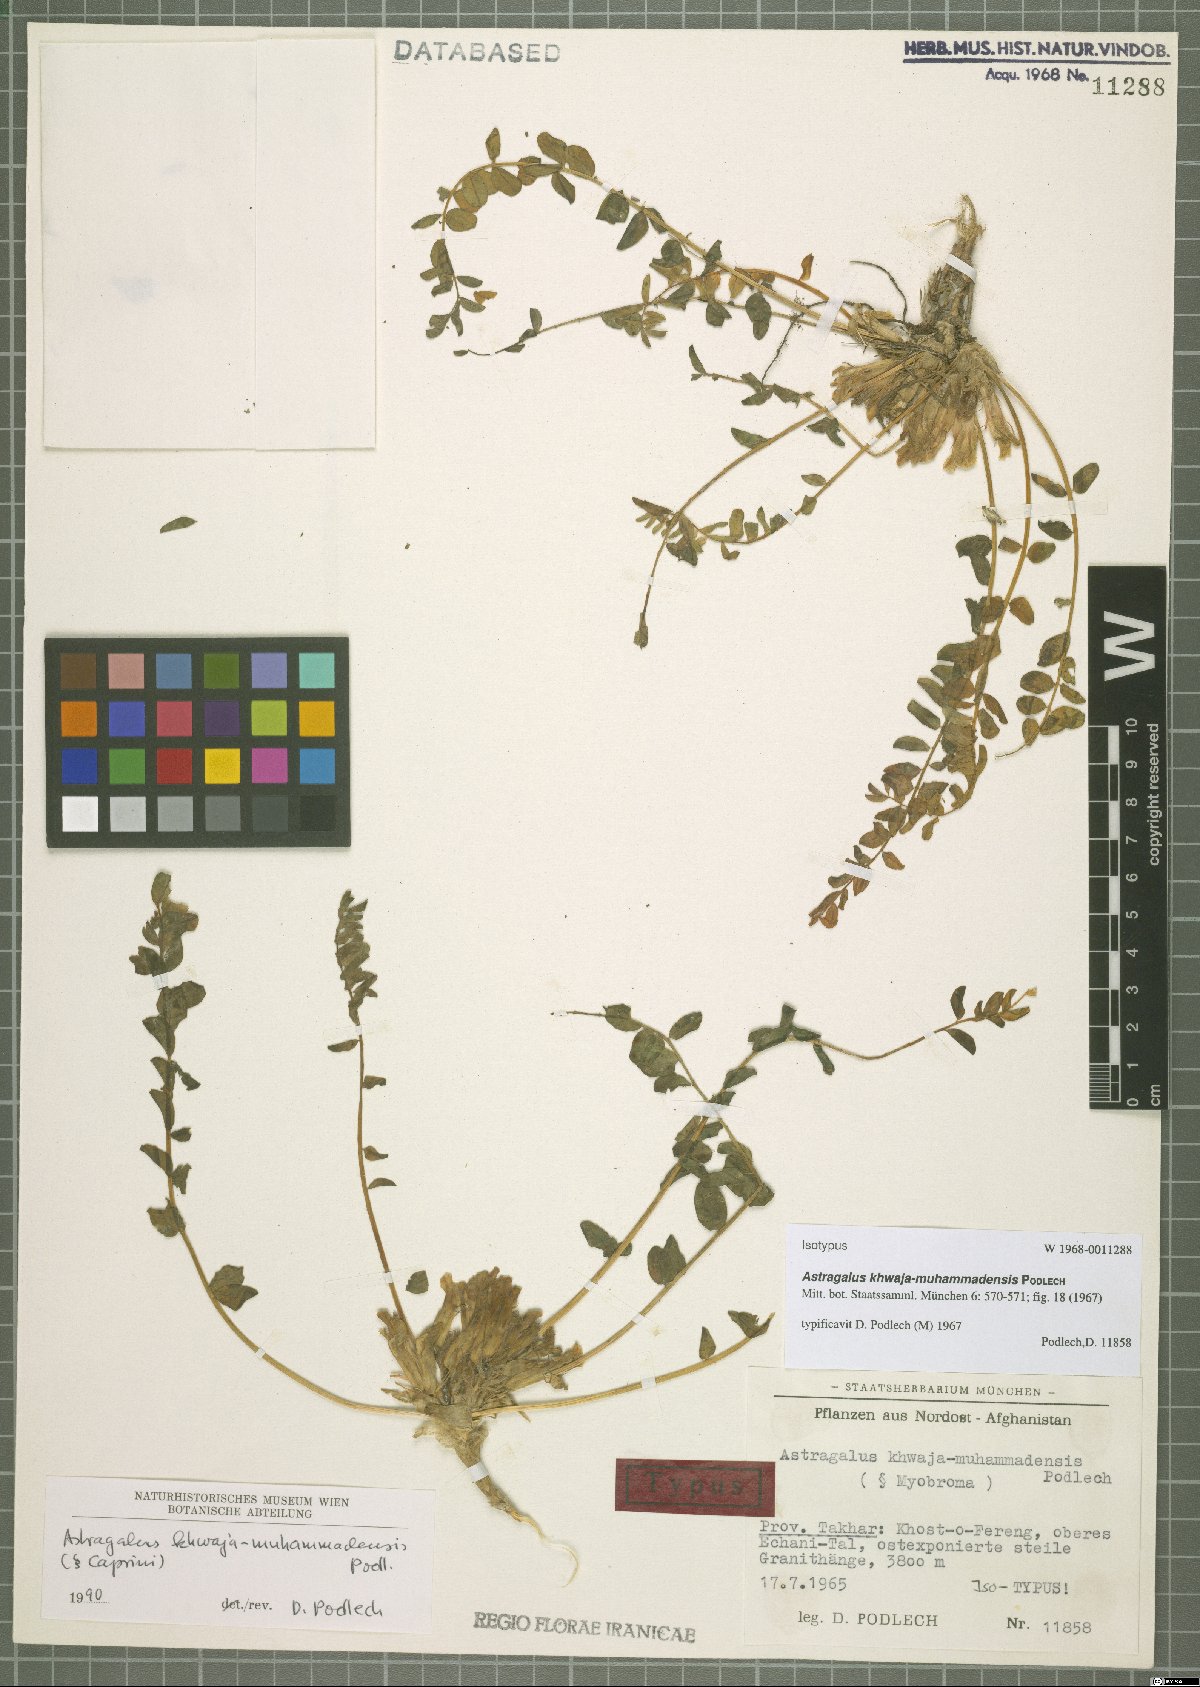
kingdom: Plantae
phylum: Tracheophyta
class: Magnoliopsida
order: Fabales
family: Fabaceae
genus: Astragalus
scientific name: Astragalus khwaja-muhammadensis
